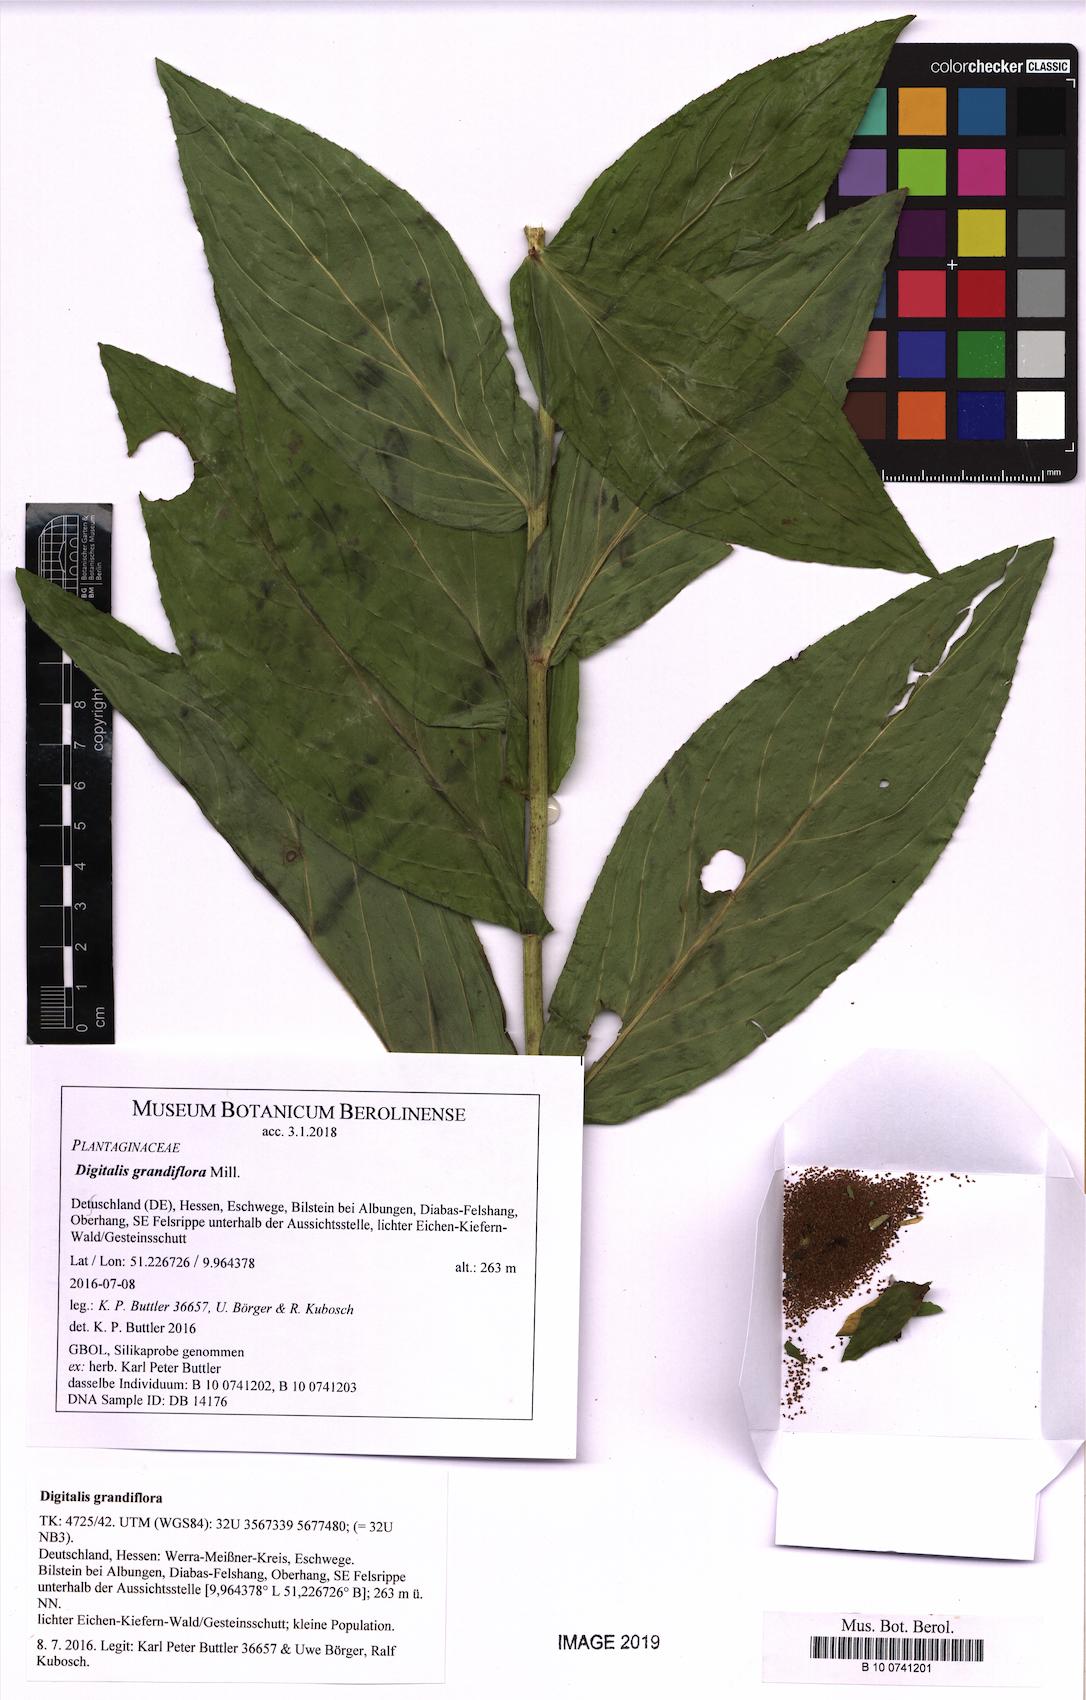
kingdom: Plantae
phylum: Tracheophyta
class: Magnoliopsida
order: Lamiales
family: Plantaginaceae
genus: Digitalis
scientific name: Digitalis grandiflora
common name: Yellow foxglove
